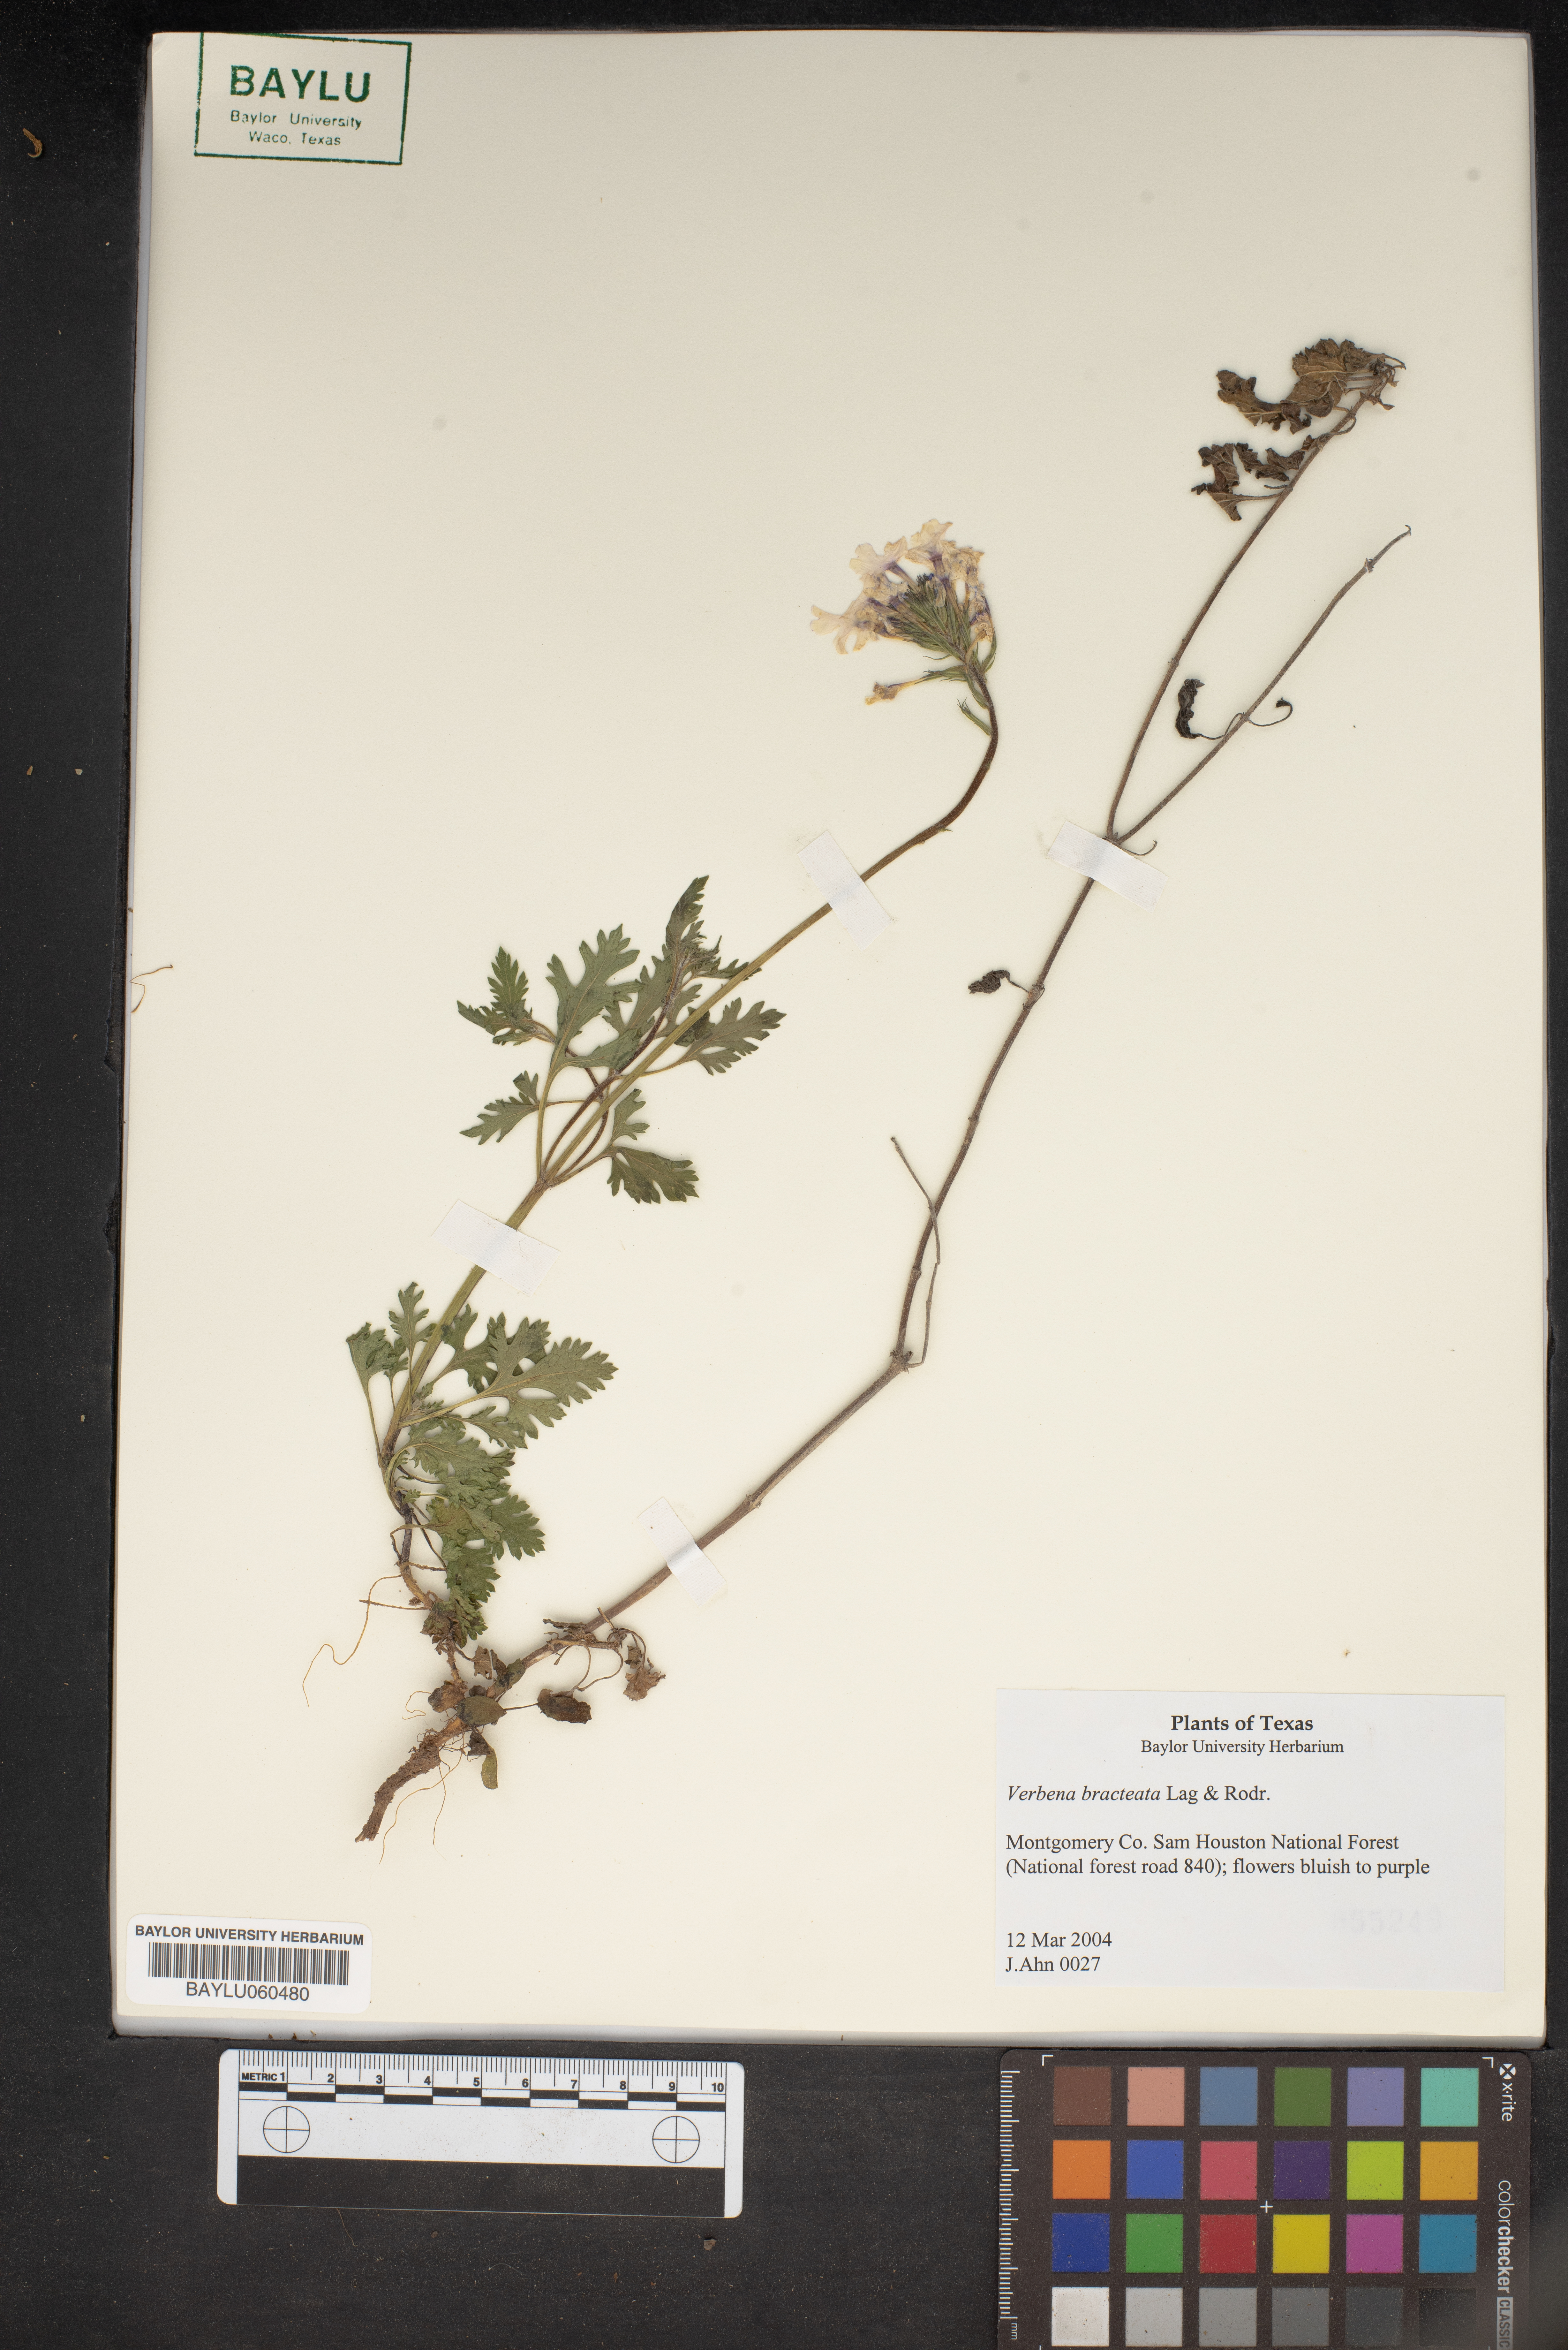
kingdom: Plantae
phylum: Tracheophyta
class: Magnoliopsida
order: Lamiales
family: Verbenaceae
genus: Verbena
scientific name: Verbena bracteata
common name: Bracted vervain
